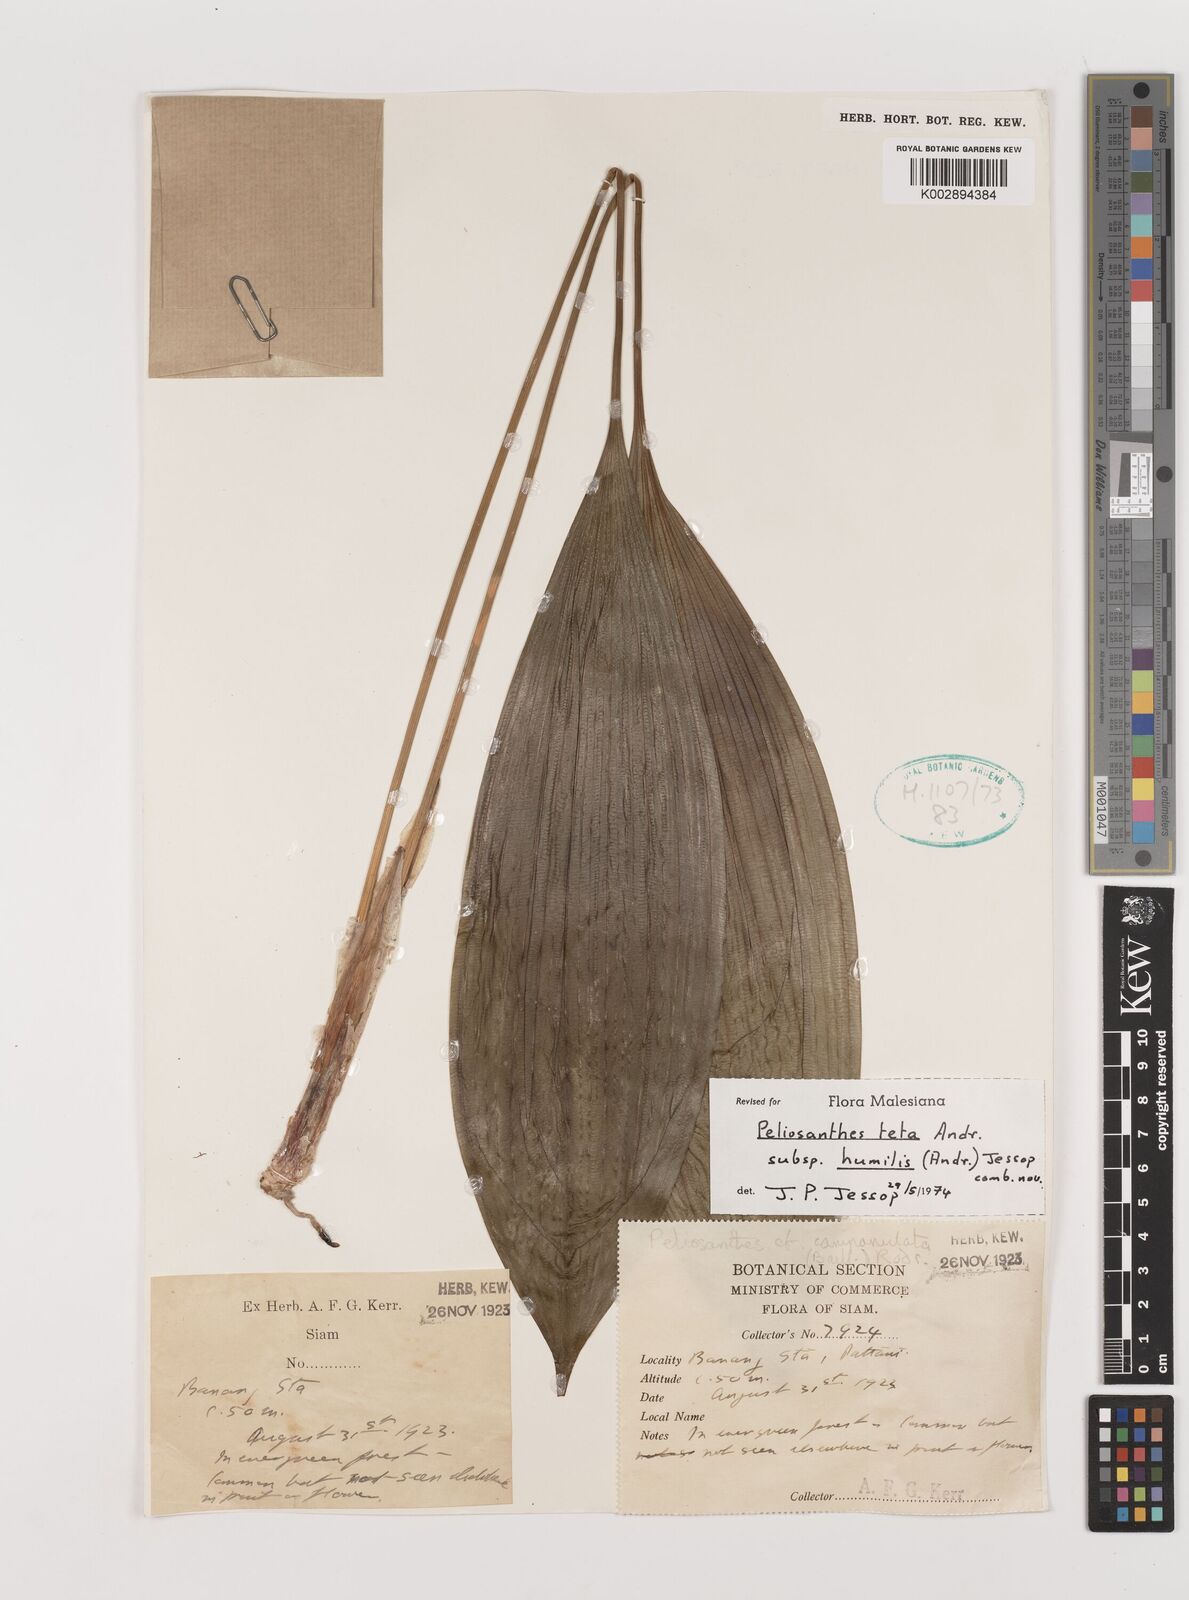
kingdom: Plantae
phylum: Tracheophyta
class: Liliopsida
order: Asparagales
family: Asparagaceae
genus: Peliosanthes
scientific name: Peliosanthes teta
